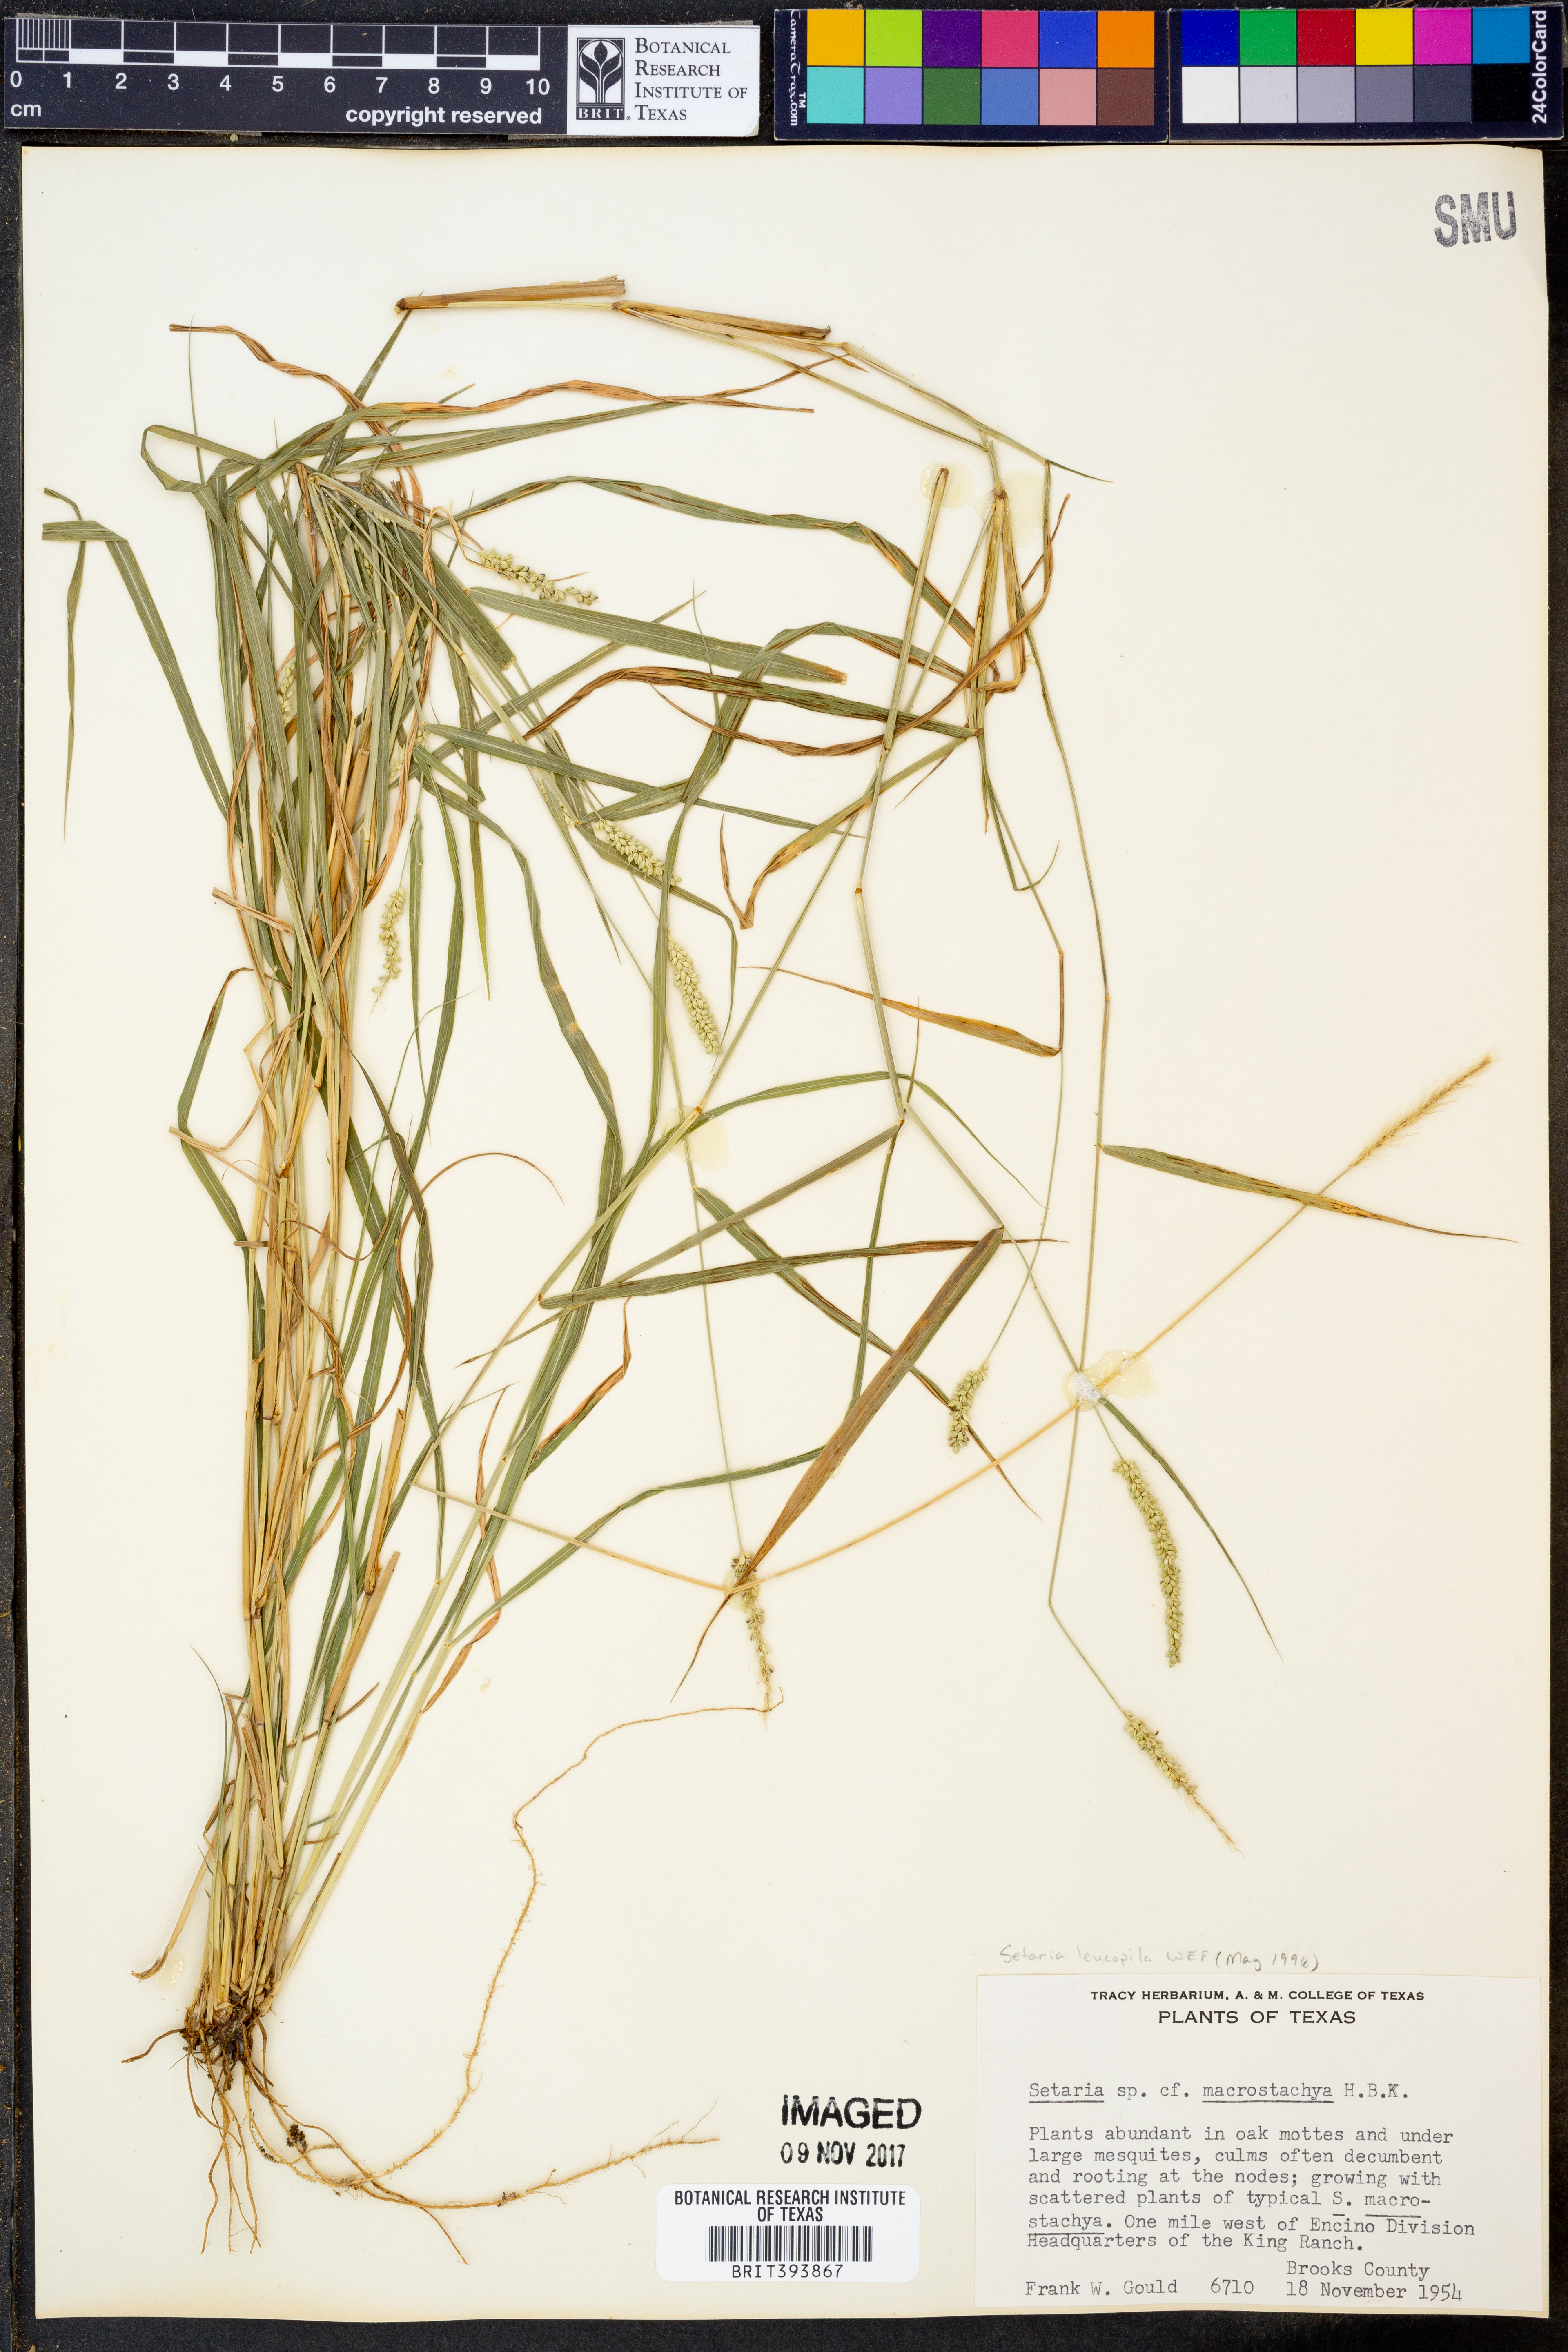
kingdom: Plantae
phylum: Tracheophyta
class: Liliopsida
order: Poales
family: Poaceae
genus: Setaria
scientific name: Setaria leucopila
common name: Plains bristle grass
